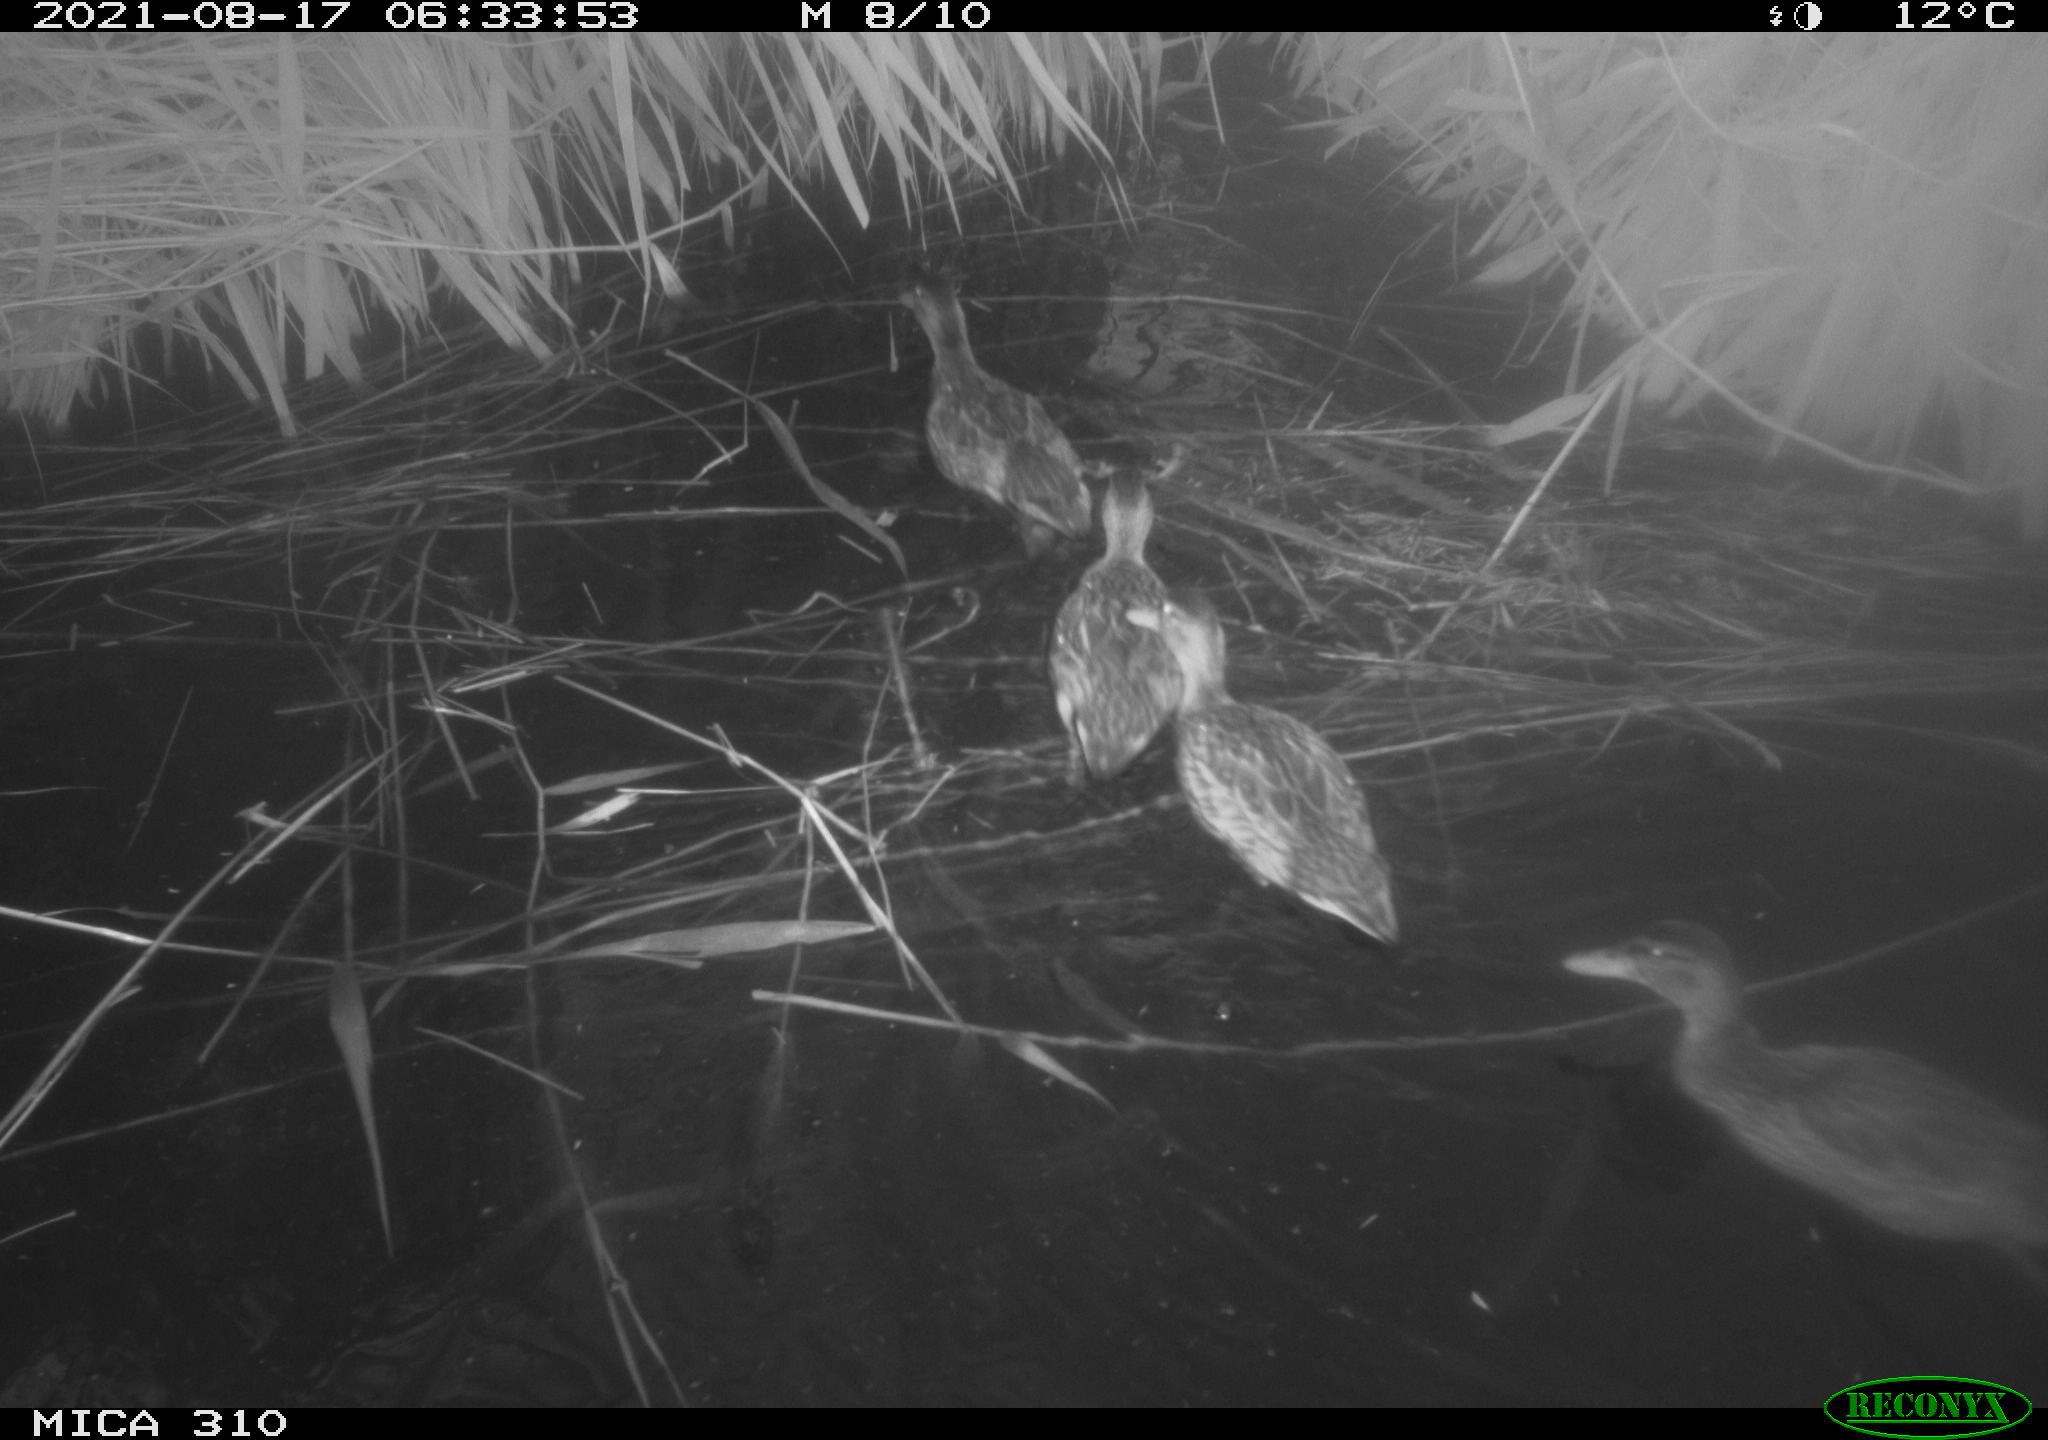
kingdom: Animalia
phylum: Chordata
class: Aves
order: Anseriformes
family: Anatidae
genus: Anas
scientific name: Anas platyrhynchos
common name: Mallard
